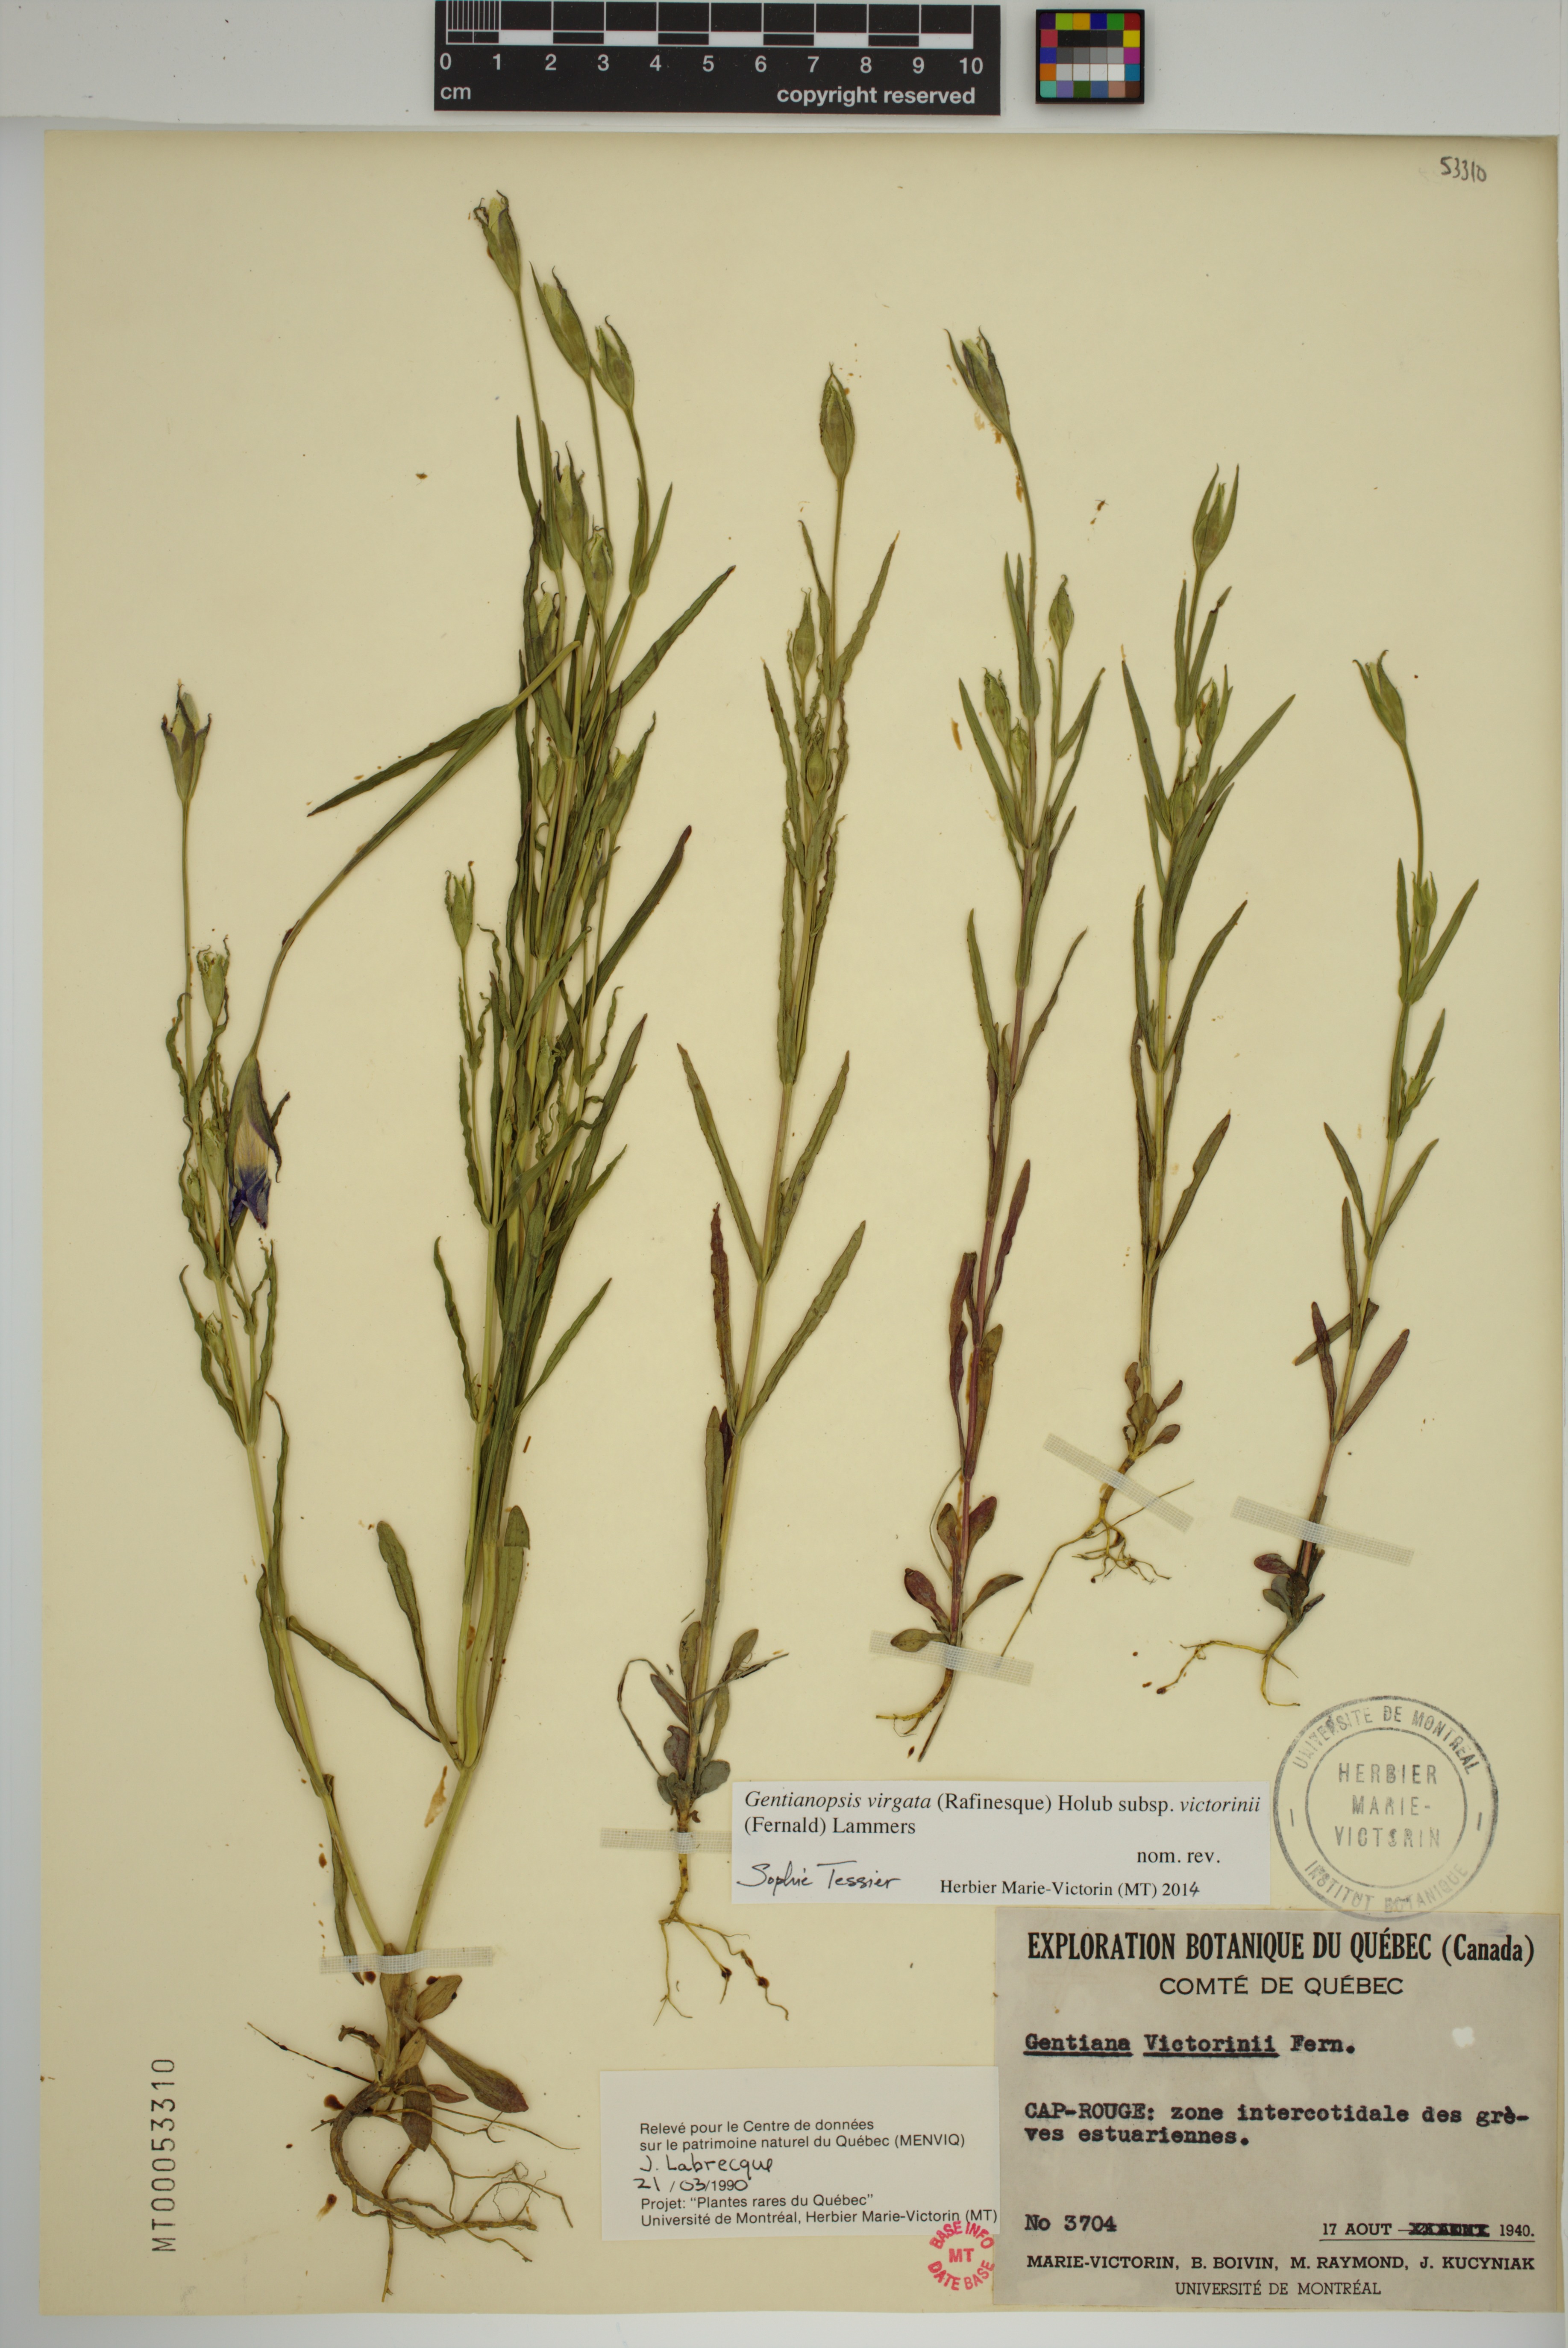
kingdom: Plantae
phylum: Tracheophyta
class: Magnoliopsida
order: Gentianales
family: Gentianaceae
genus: Gentianopsis
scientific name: Gentianopsis victorinii
